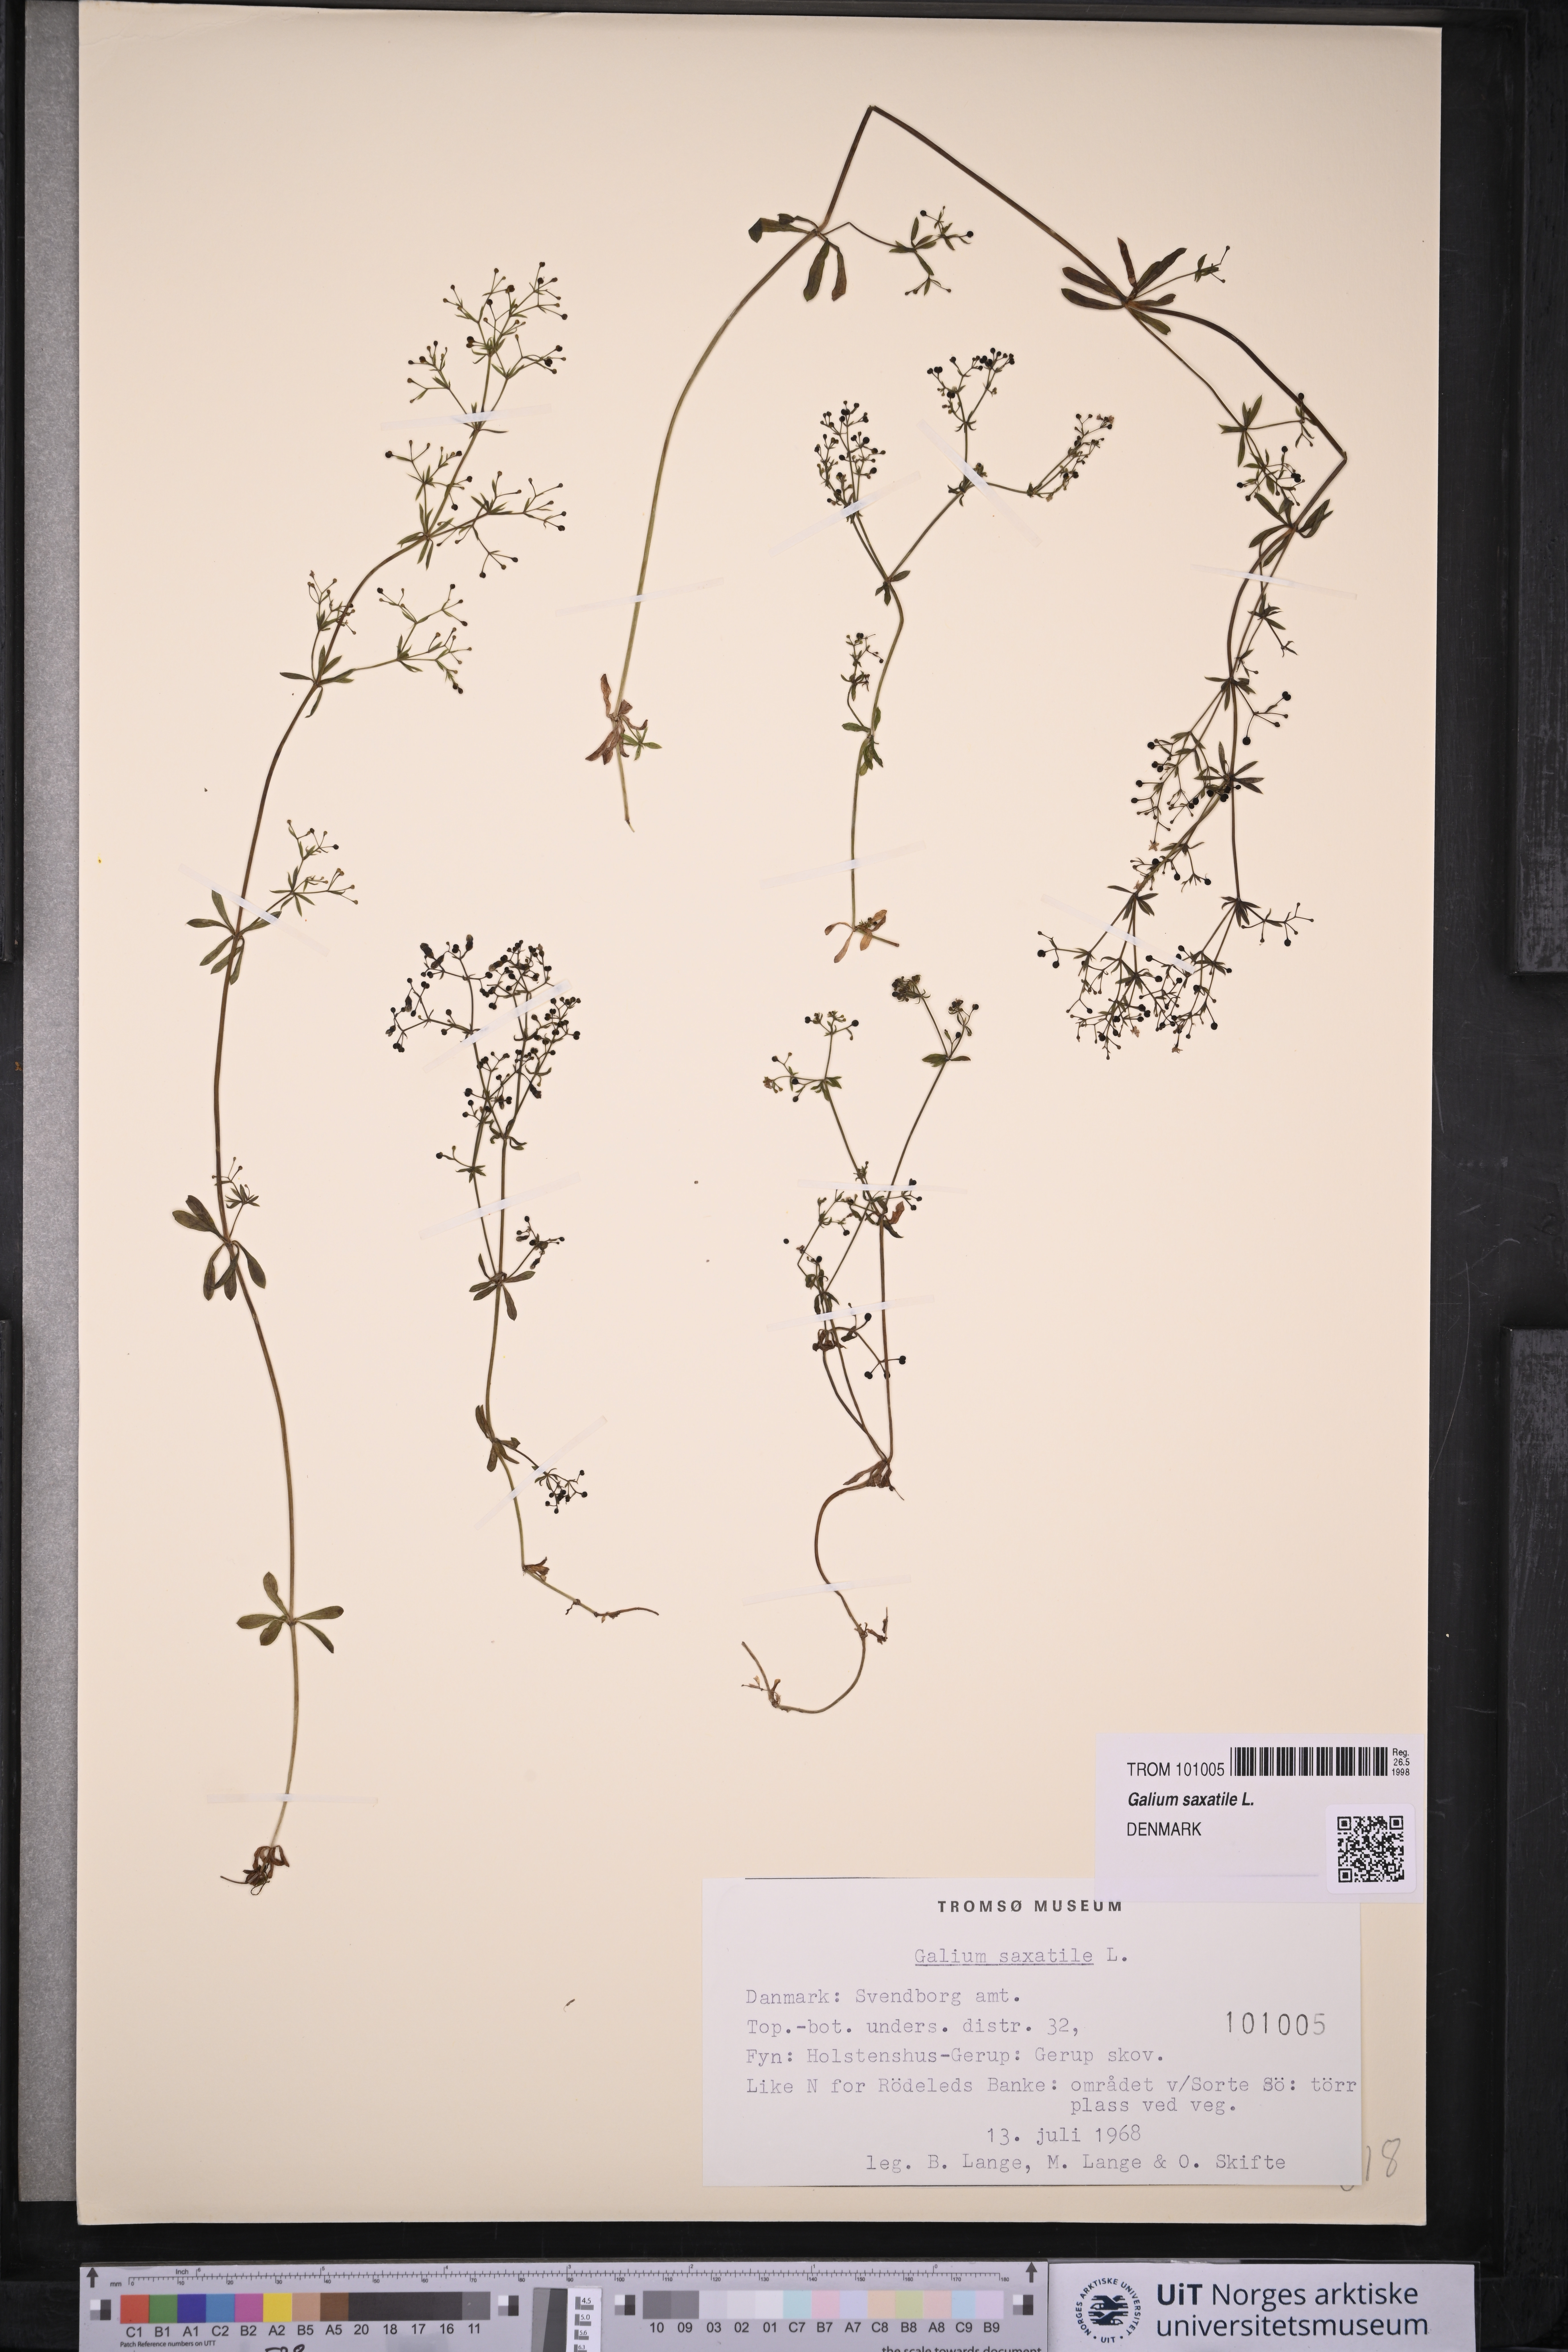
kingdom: Plantae
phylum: Tracheophyta
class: Magnoliopsida
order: Gentianales
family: Rubiaceae
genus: Galium
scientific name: Galium saxatile
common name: Heath bedstraw
